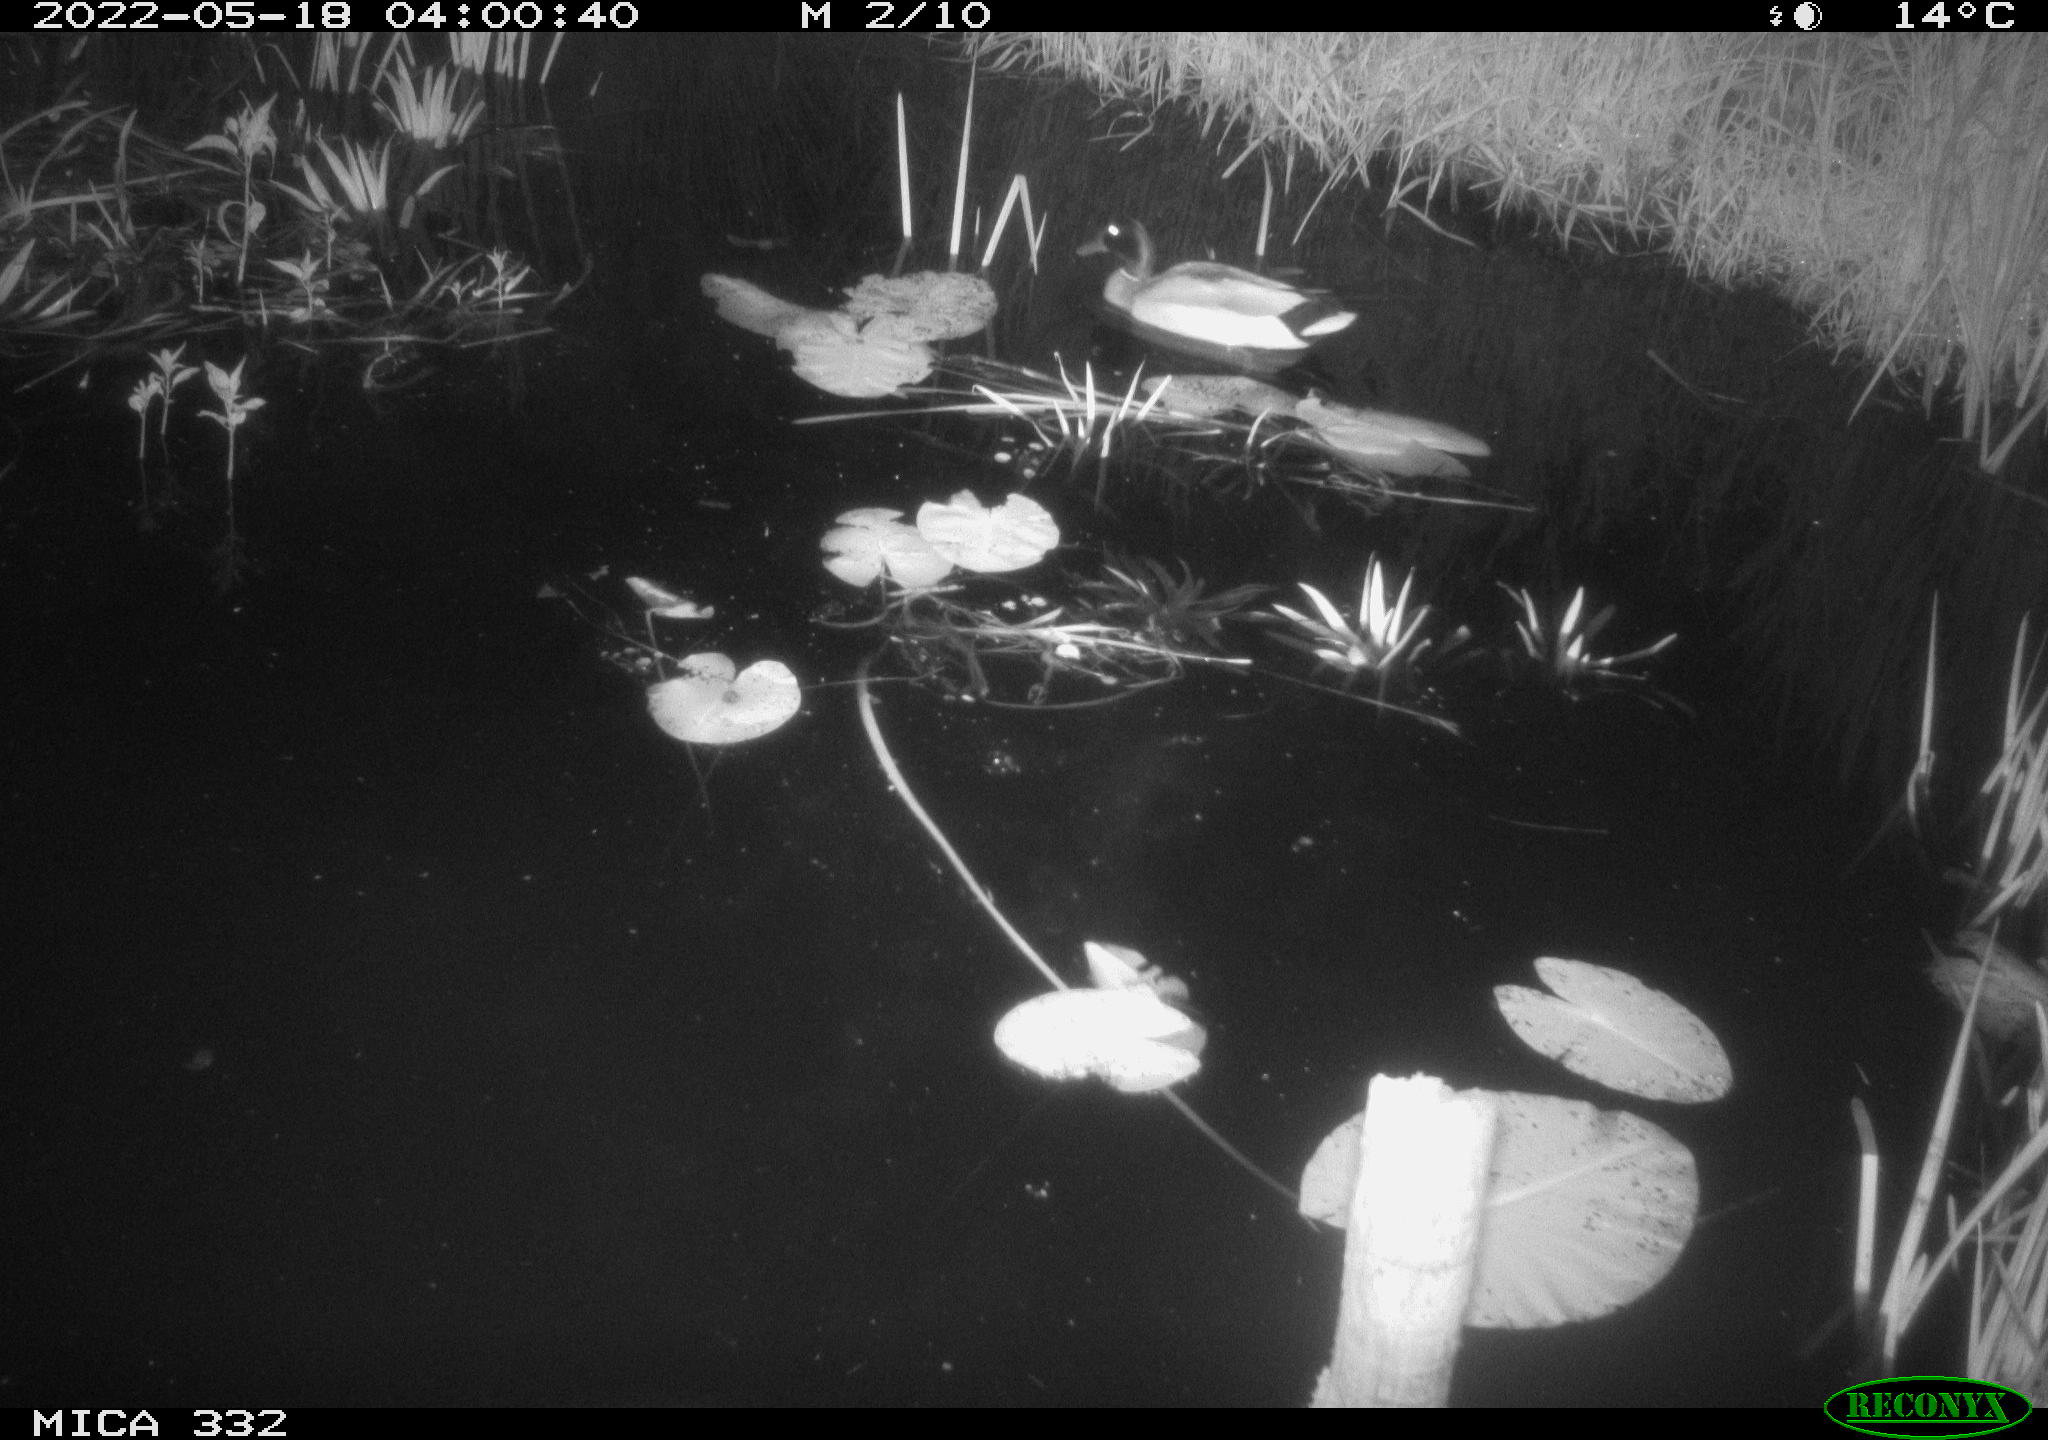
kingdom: Animalia
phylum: Chordata
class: Aves
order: Anseriformes
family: Anatidae
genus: Anas
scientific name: Anas platyrhynchos
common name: Mallard
